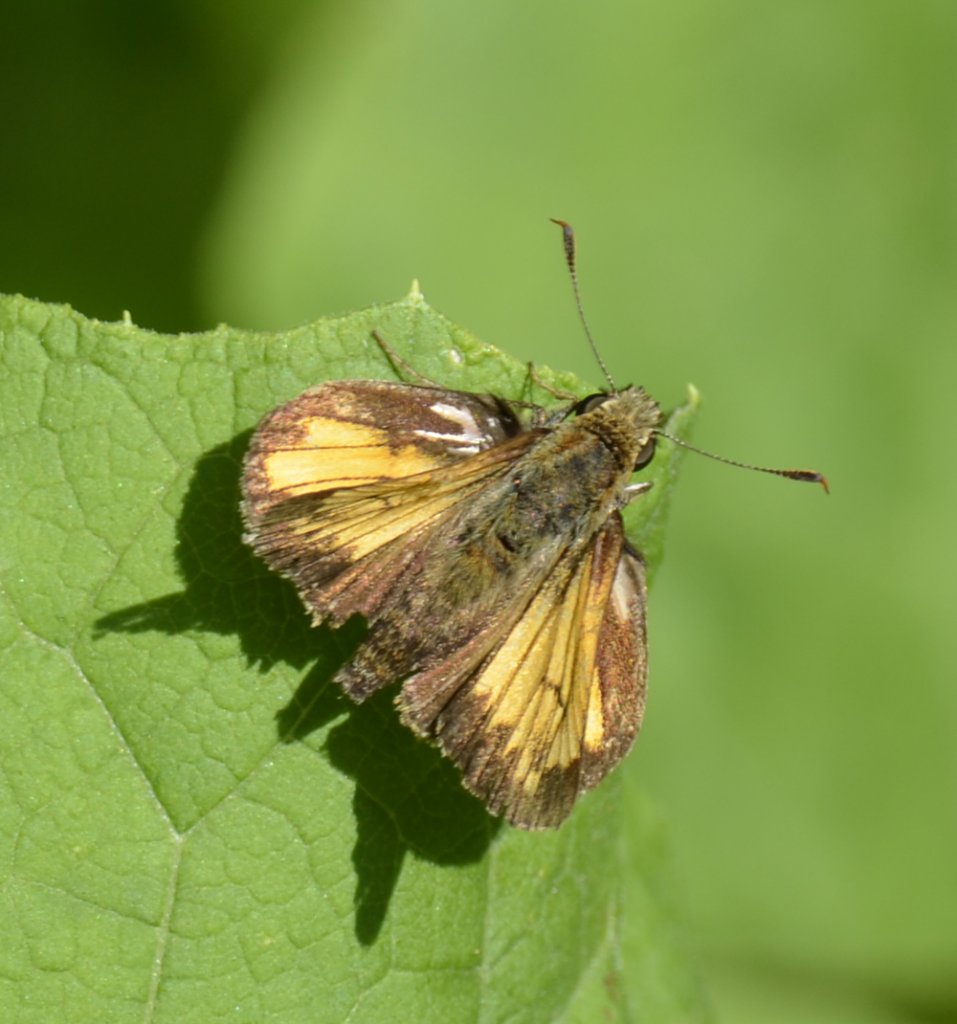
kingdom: Animalia
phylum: Arthropoda
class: Insecta
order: Lepidoptera
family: Hesperiidae
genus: Lon
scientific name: Lon hobomok
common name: Hobomok Skipper
